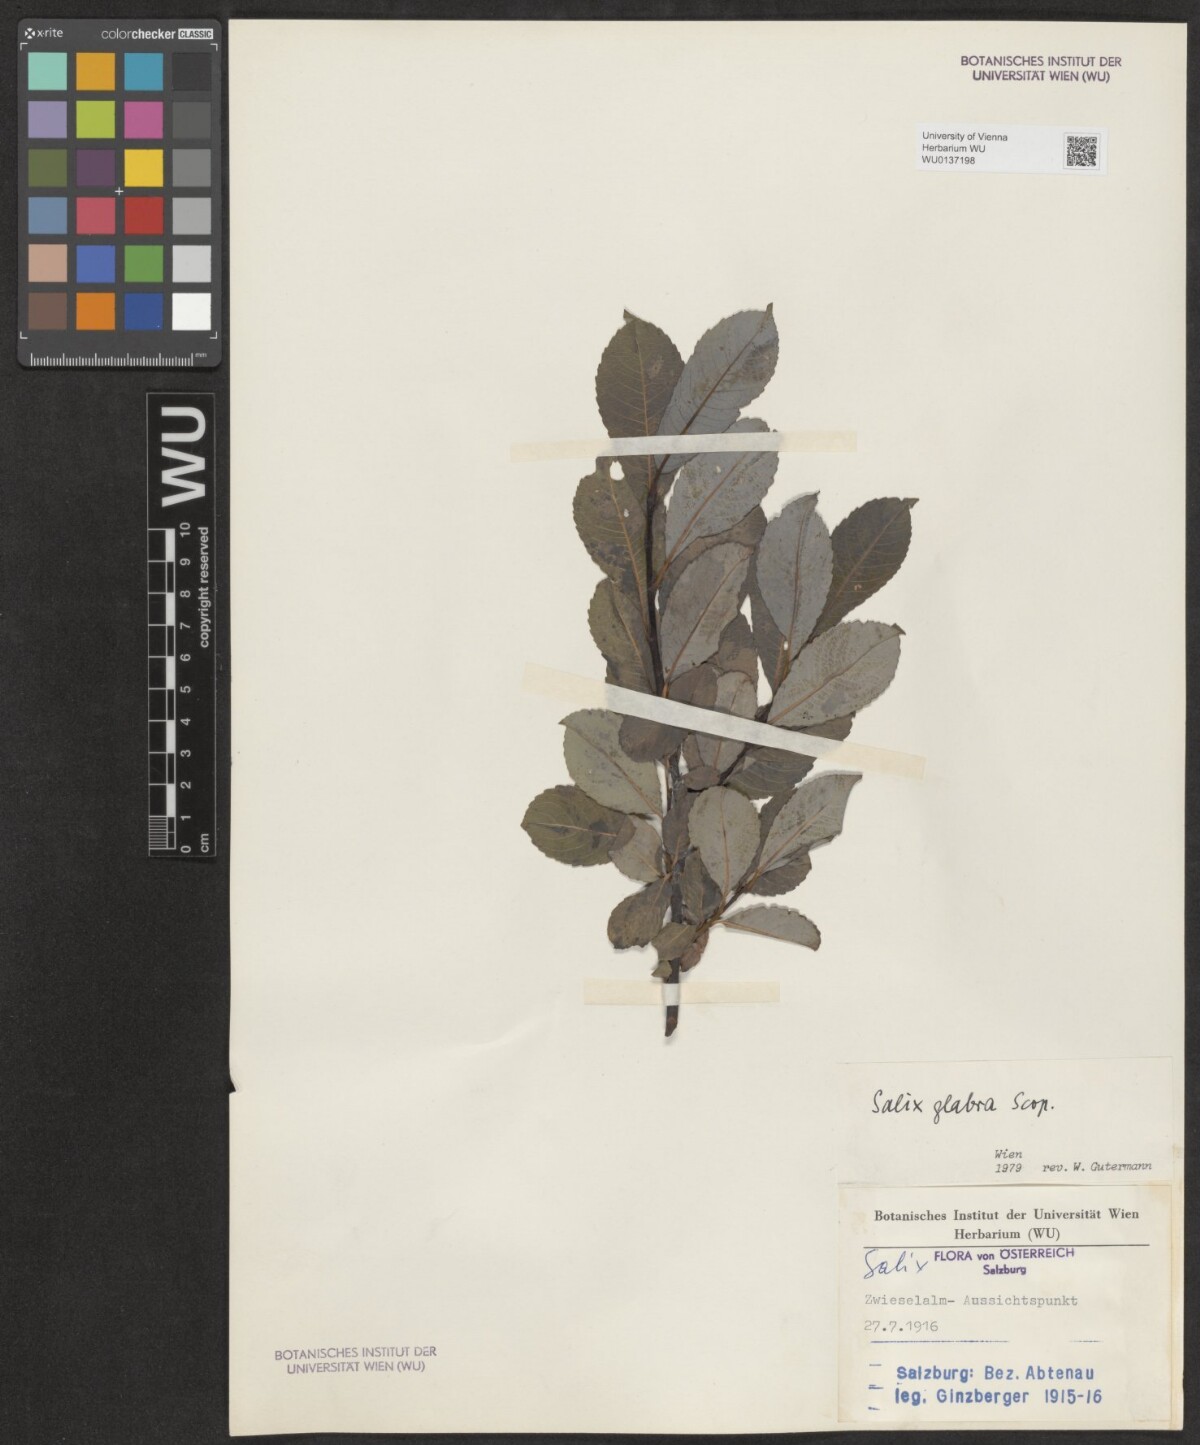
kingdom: Plantae
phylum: Tracheophyta
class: Magnoliopsida
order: Malpighiales
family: Salicaceae
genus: Salix
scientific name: Salix glabra
